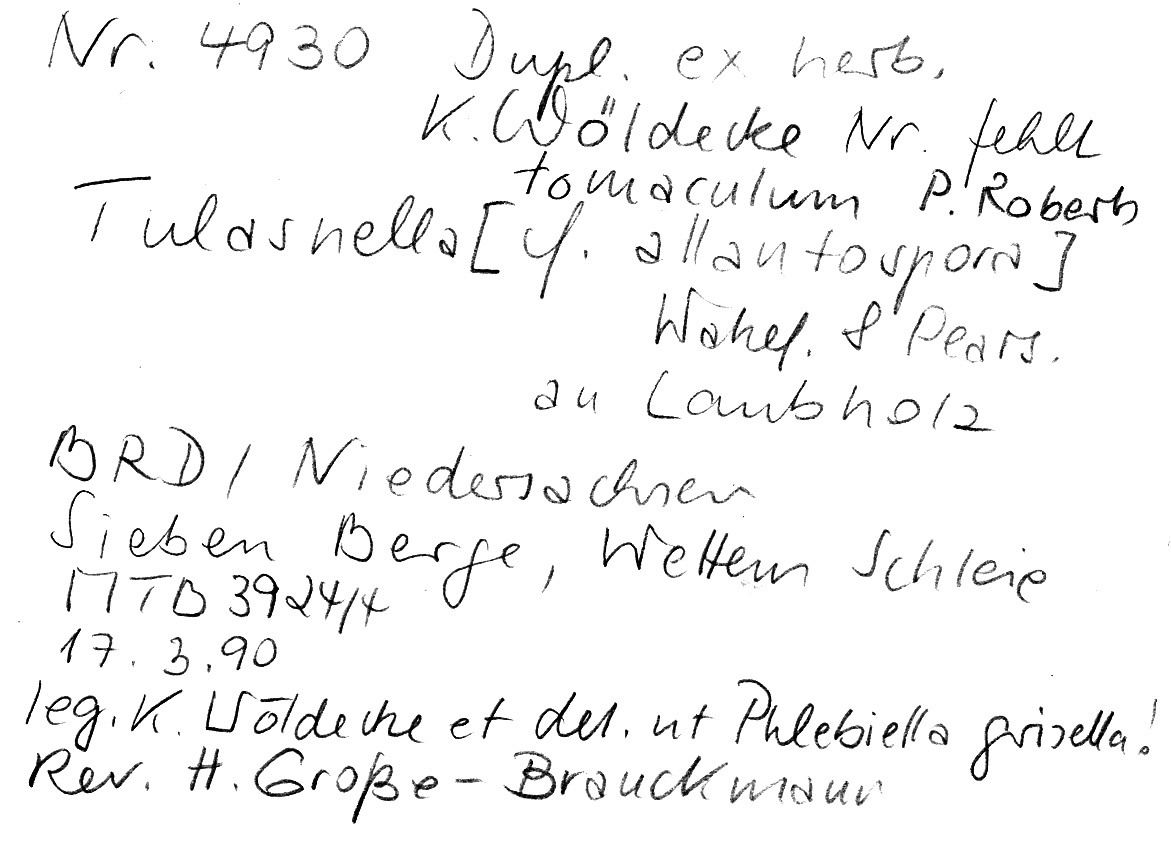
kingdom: Fungi
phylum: Basidiomycota
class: Agaricomycetes
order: Cantharellales
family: Tulasnellaceae
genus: Tulasnella
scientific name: Tulasnella tomaculum
